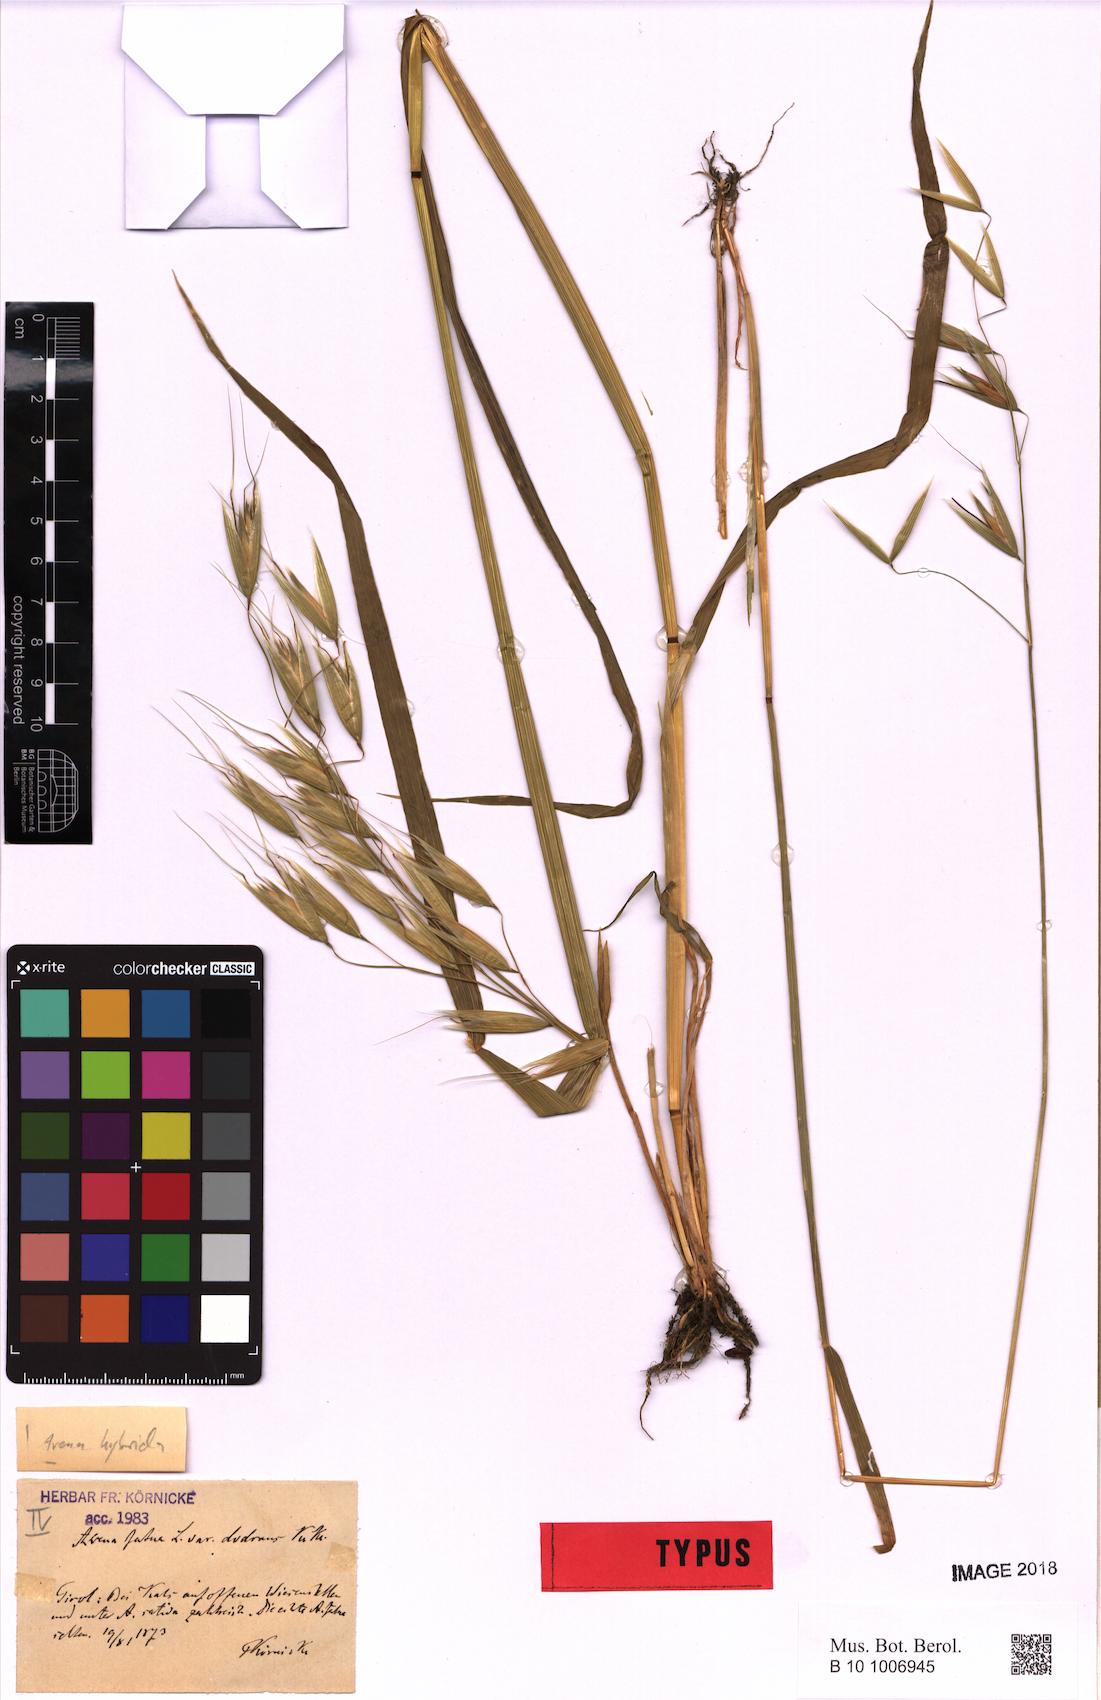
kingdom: Plantae
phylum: Tracheophyta
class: Liliopsida
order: Poales
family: Poaceae
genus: Avena
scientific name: Avena hybrida
